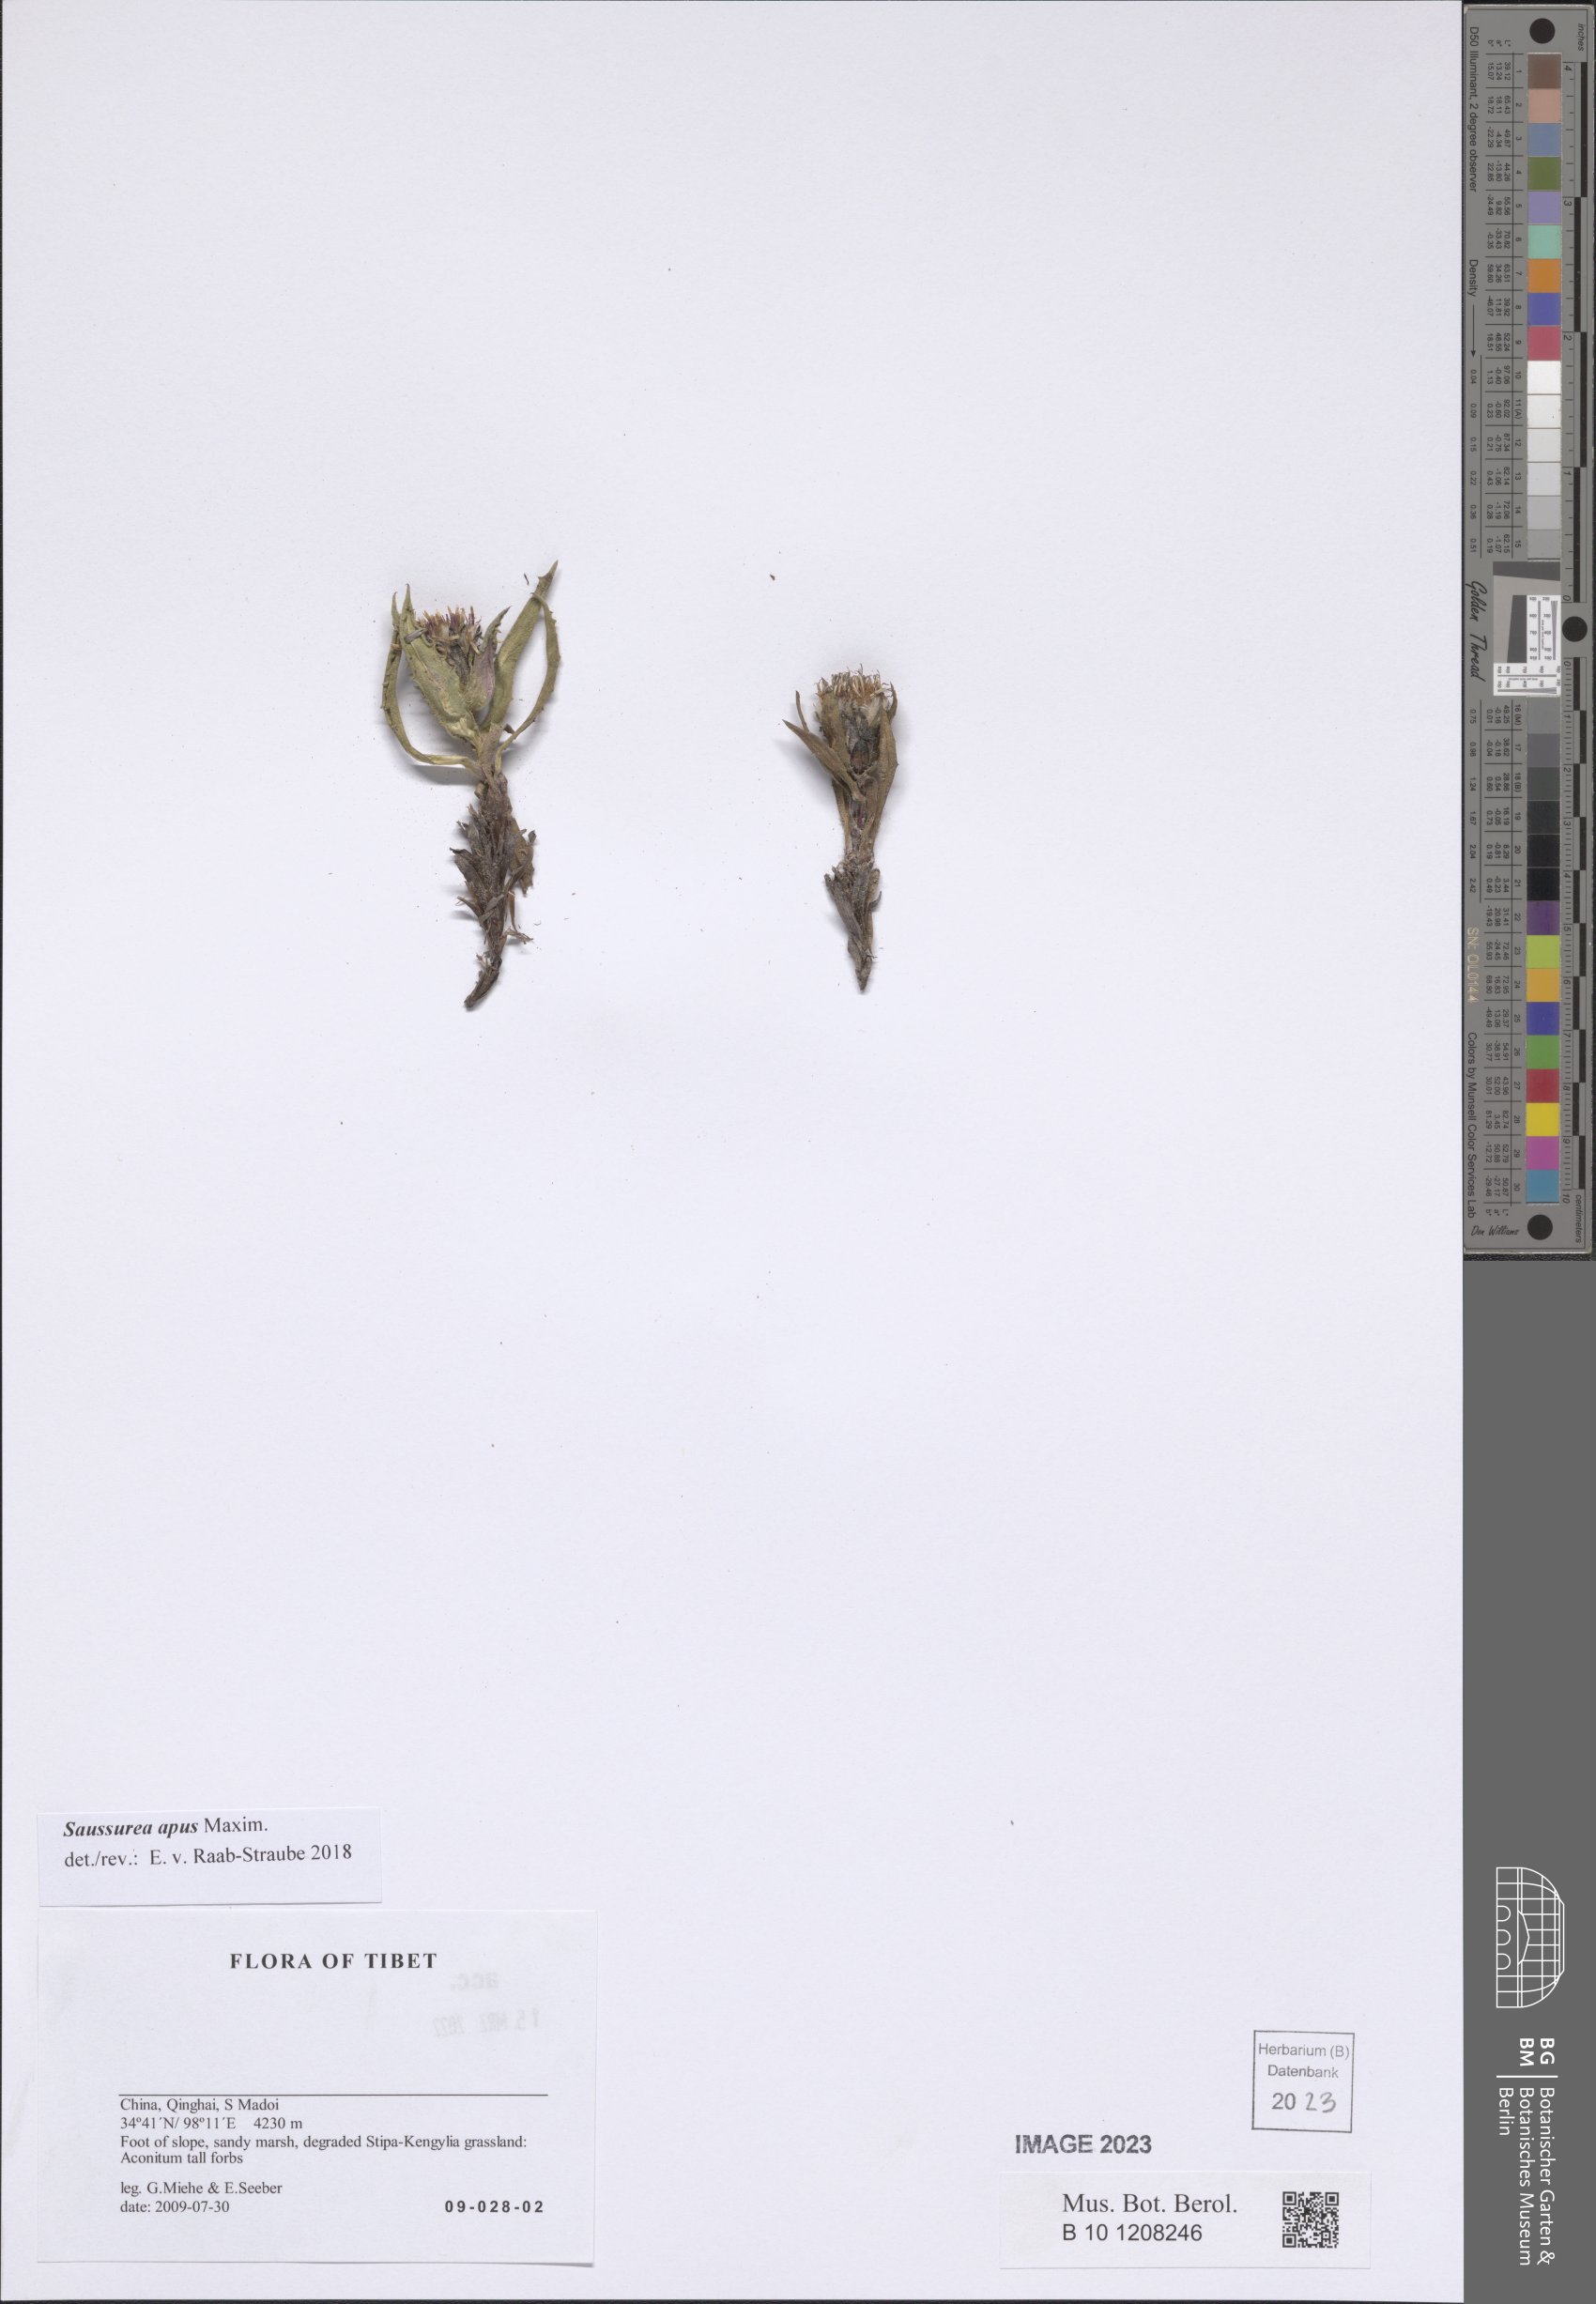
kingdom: Plantae
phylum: Tracheophyta
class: Magnoliopsida
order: Asterales
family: Asteraceae
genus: Saussurea
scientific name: Saussurea apus
